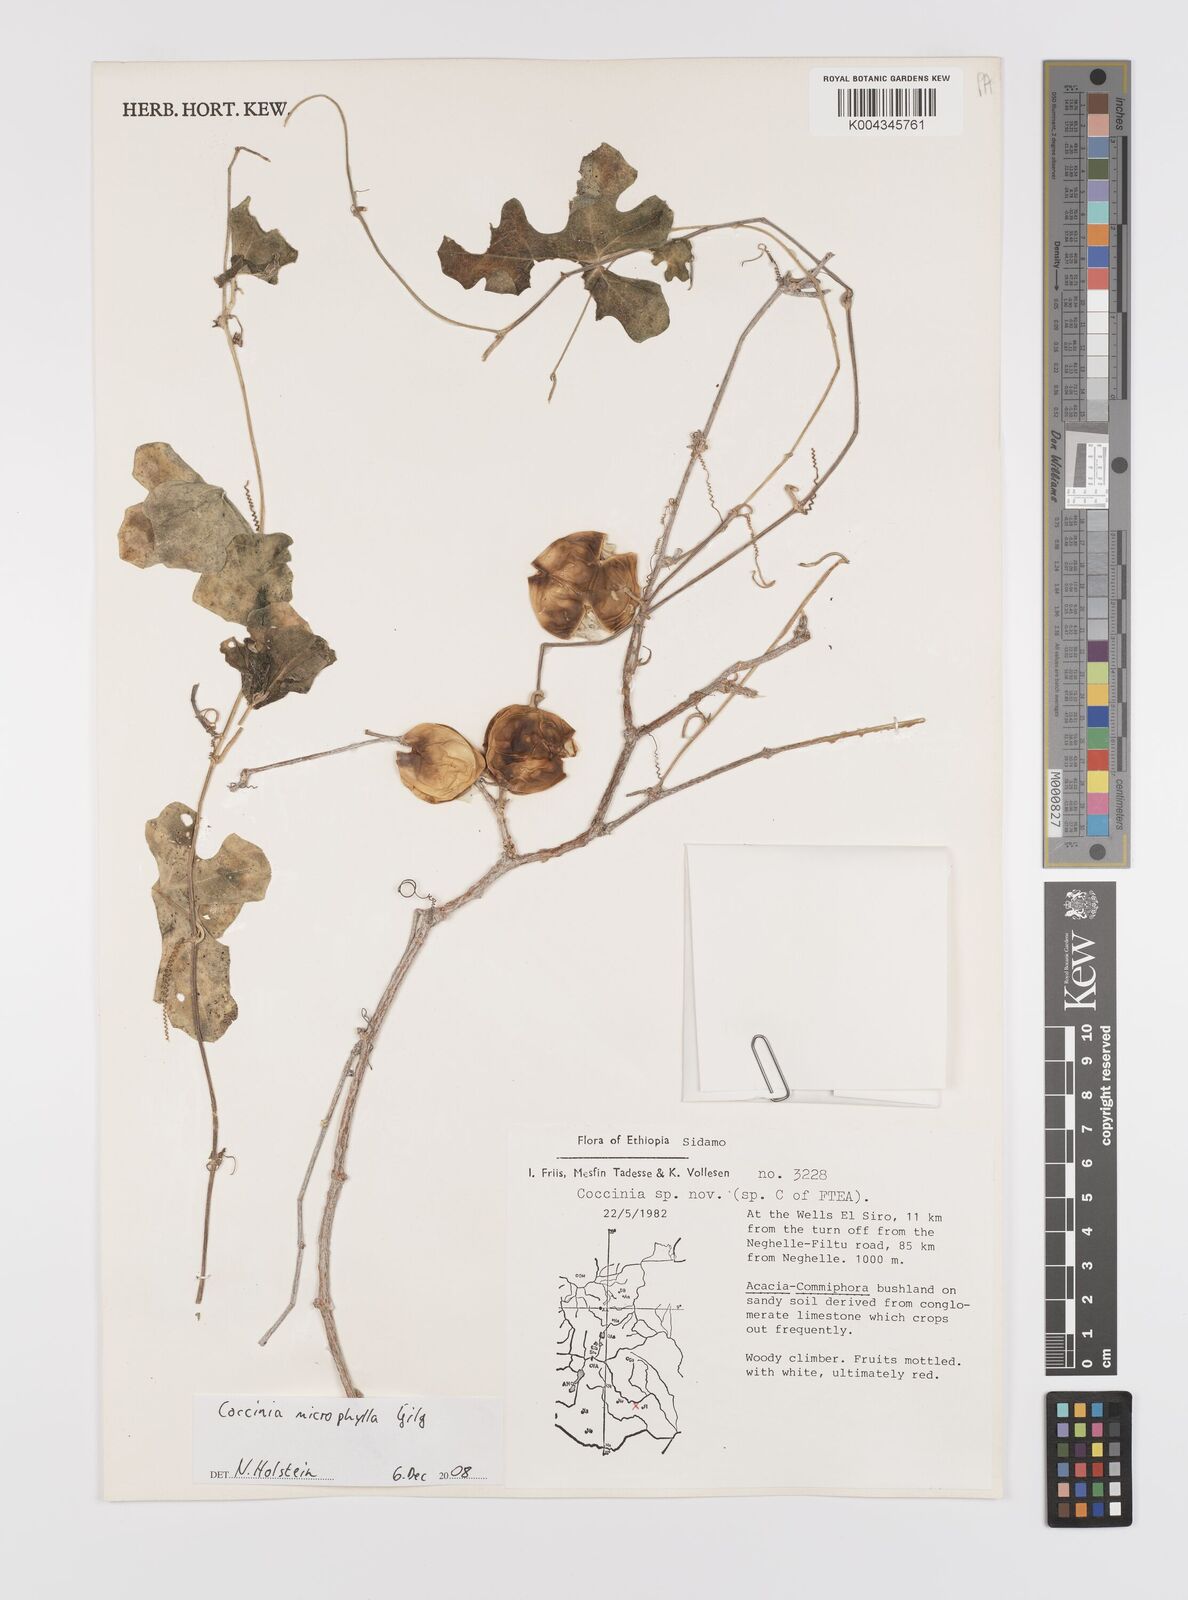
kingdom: Plantae
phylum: Tracheophyta
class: Magnoliopsida
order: Cucurbitales
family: Cucurbitaceae
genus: Coccinia
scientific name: Coccinia microphylla
